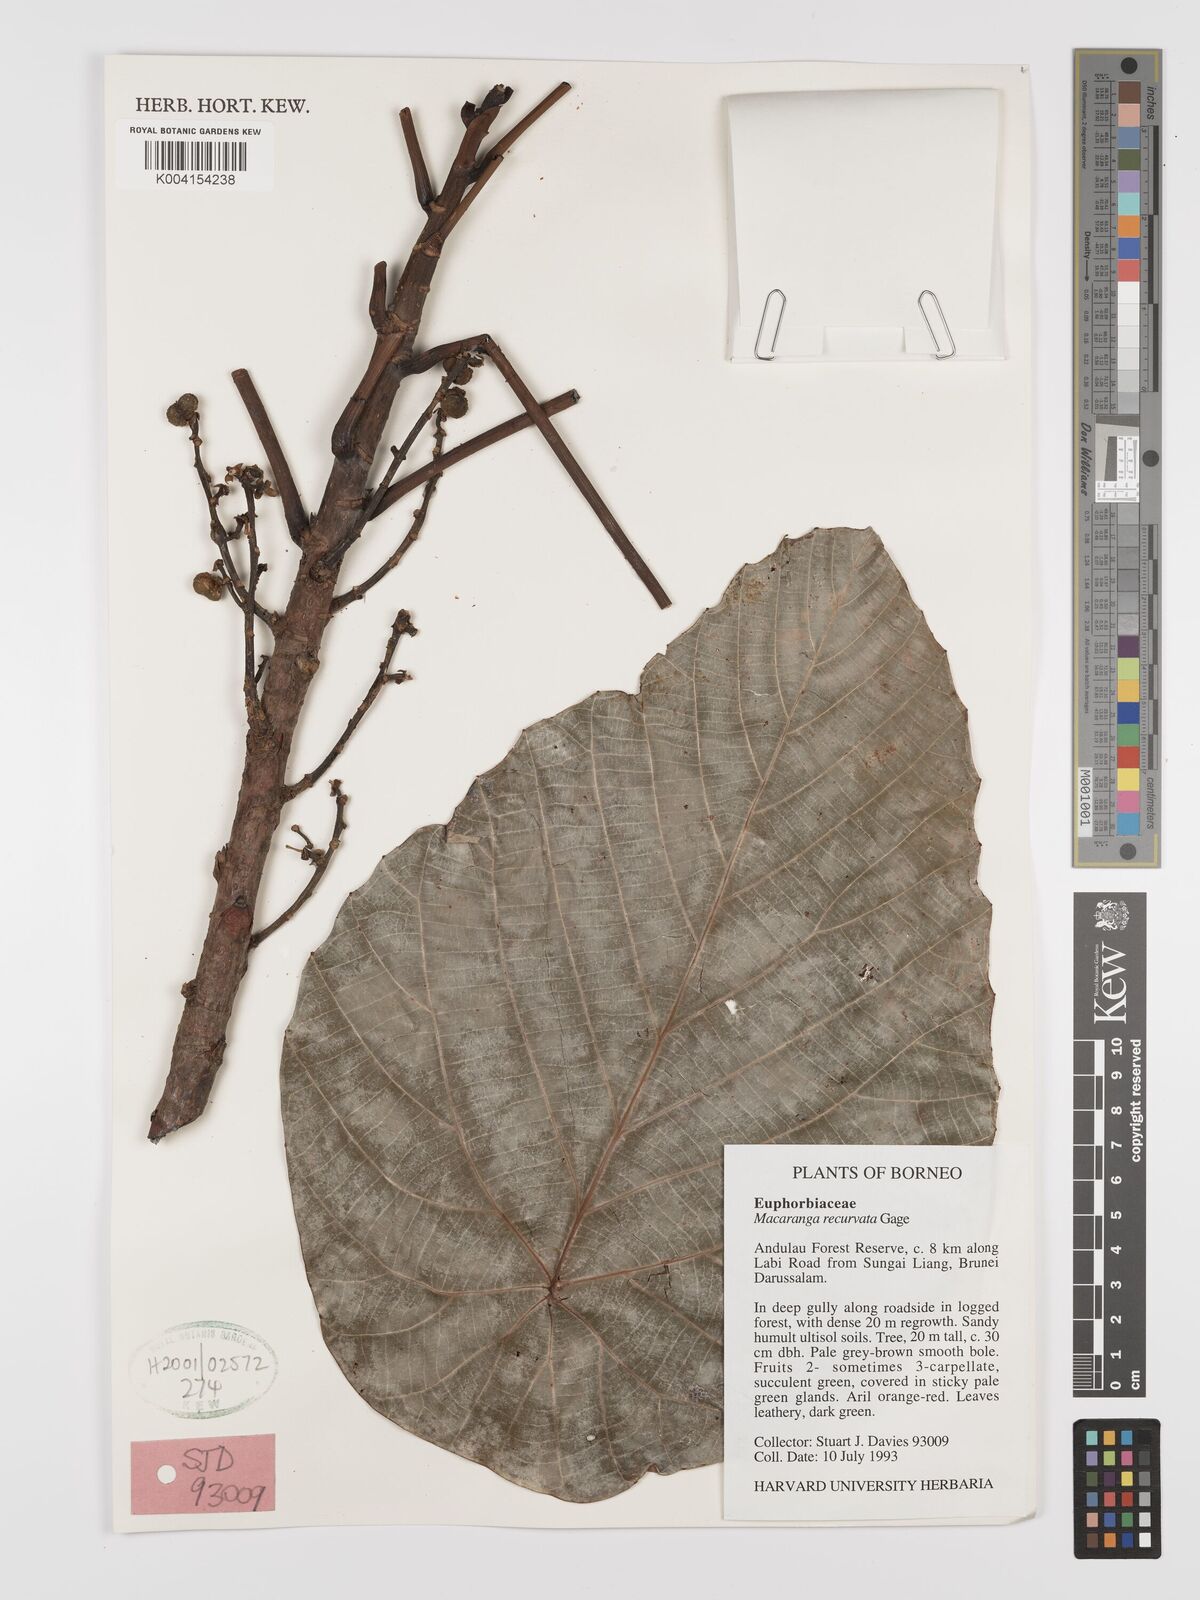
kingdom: Plantae
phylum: Tracheophyta
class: Magnoliopsida
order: Malpighiales
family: Euphorbiaceae
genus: Macaranga
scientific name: Macaranga recurvata
